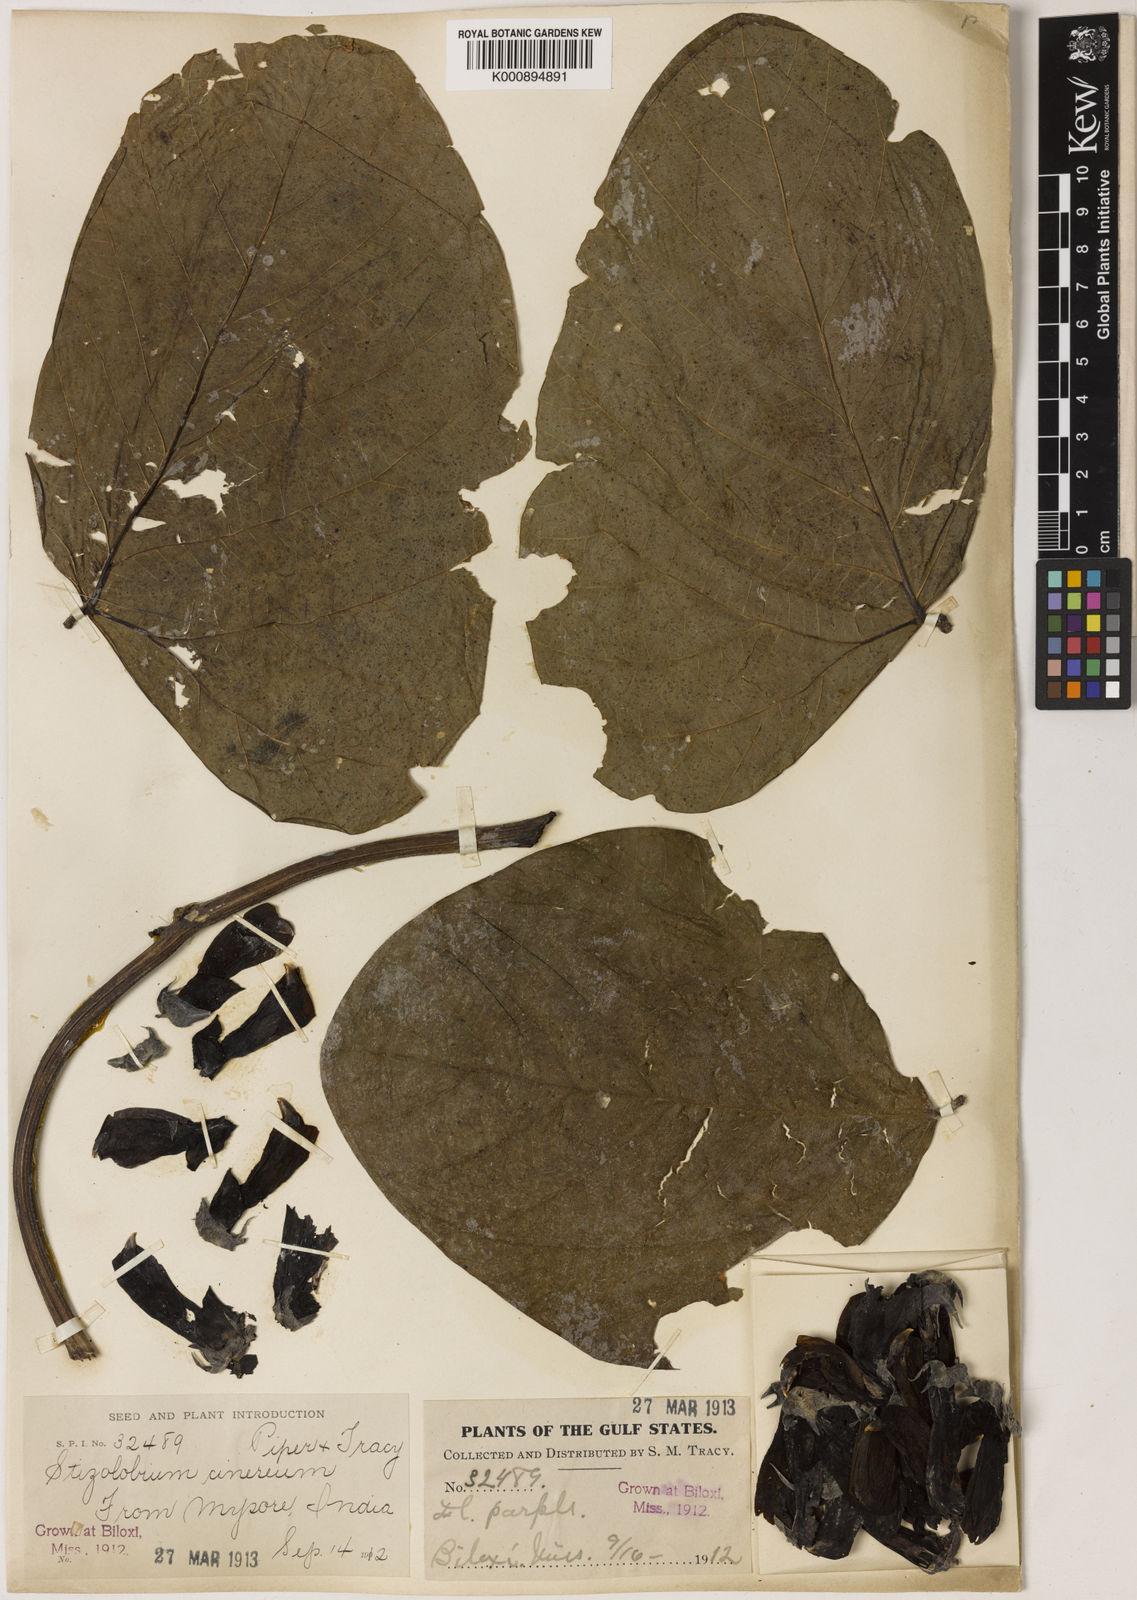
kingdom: Plantae
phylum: Tracheophyta
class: Magnoliopsida
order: Fabales
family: Fabaceae
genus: Mucuna
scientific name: Mucuna
